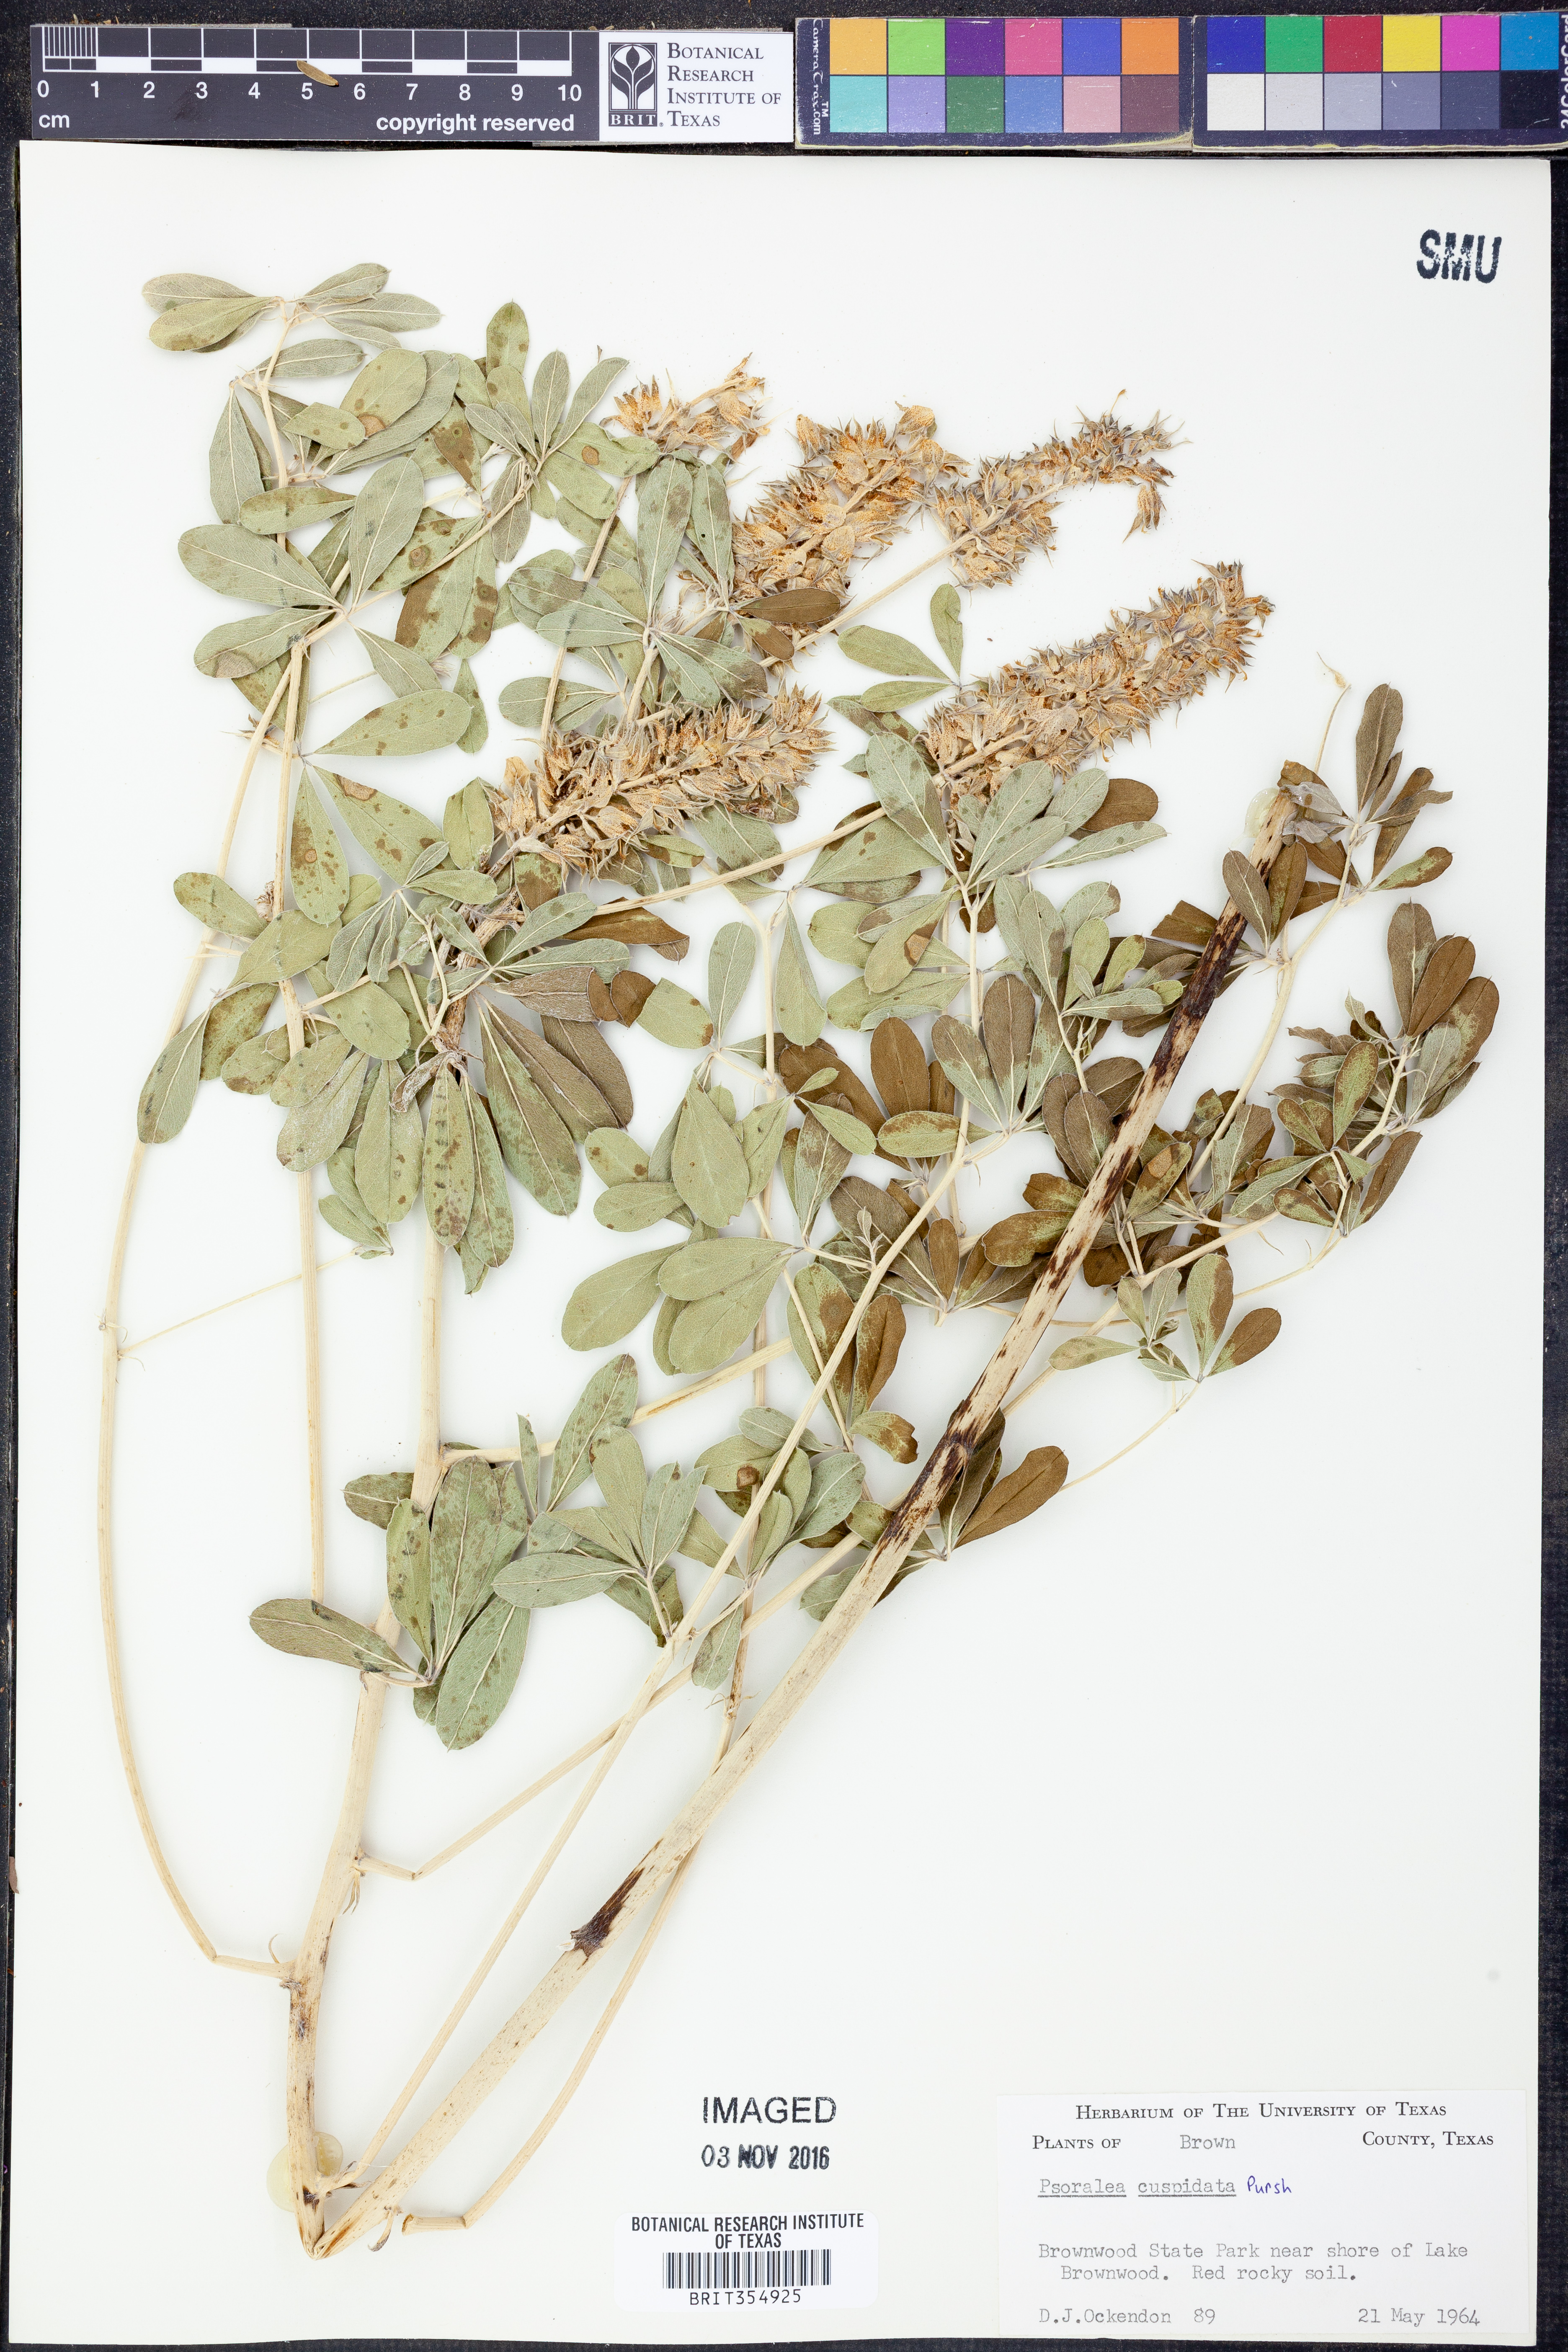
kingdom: Plantae
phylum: Tracheophyta
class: Magnoliopsida
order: Fabales
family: Fabaceae
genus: Pediomelum
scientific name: Pediomelum cuspidatum
